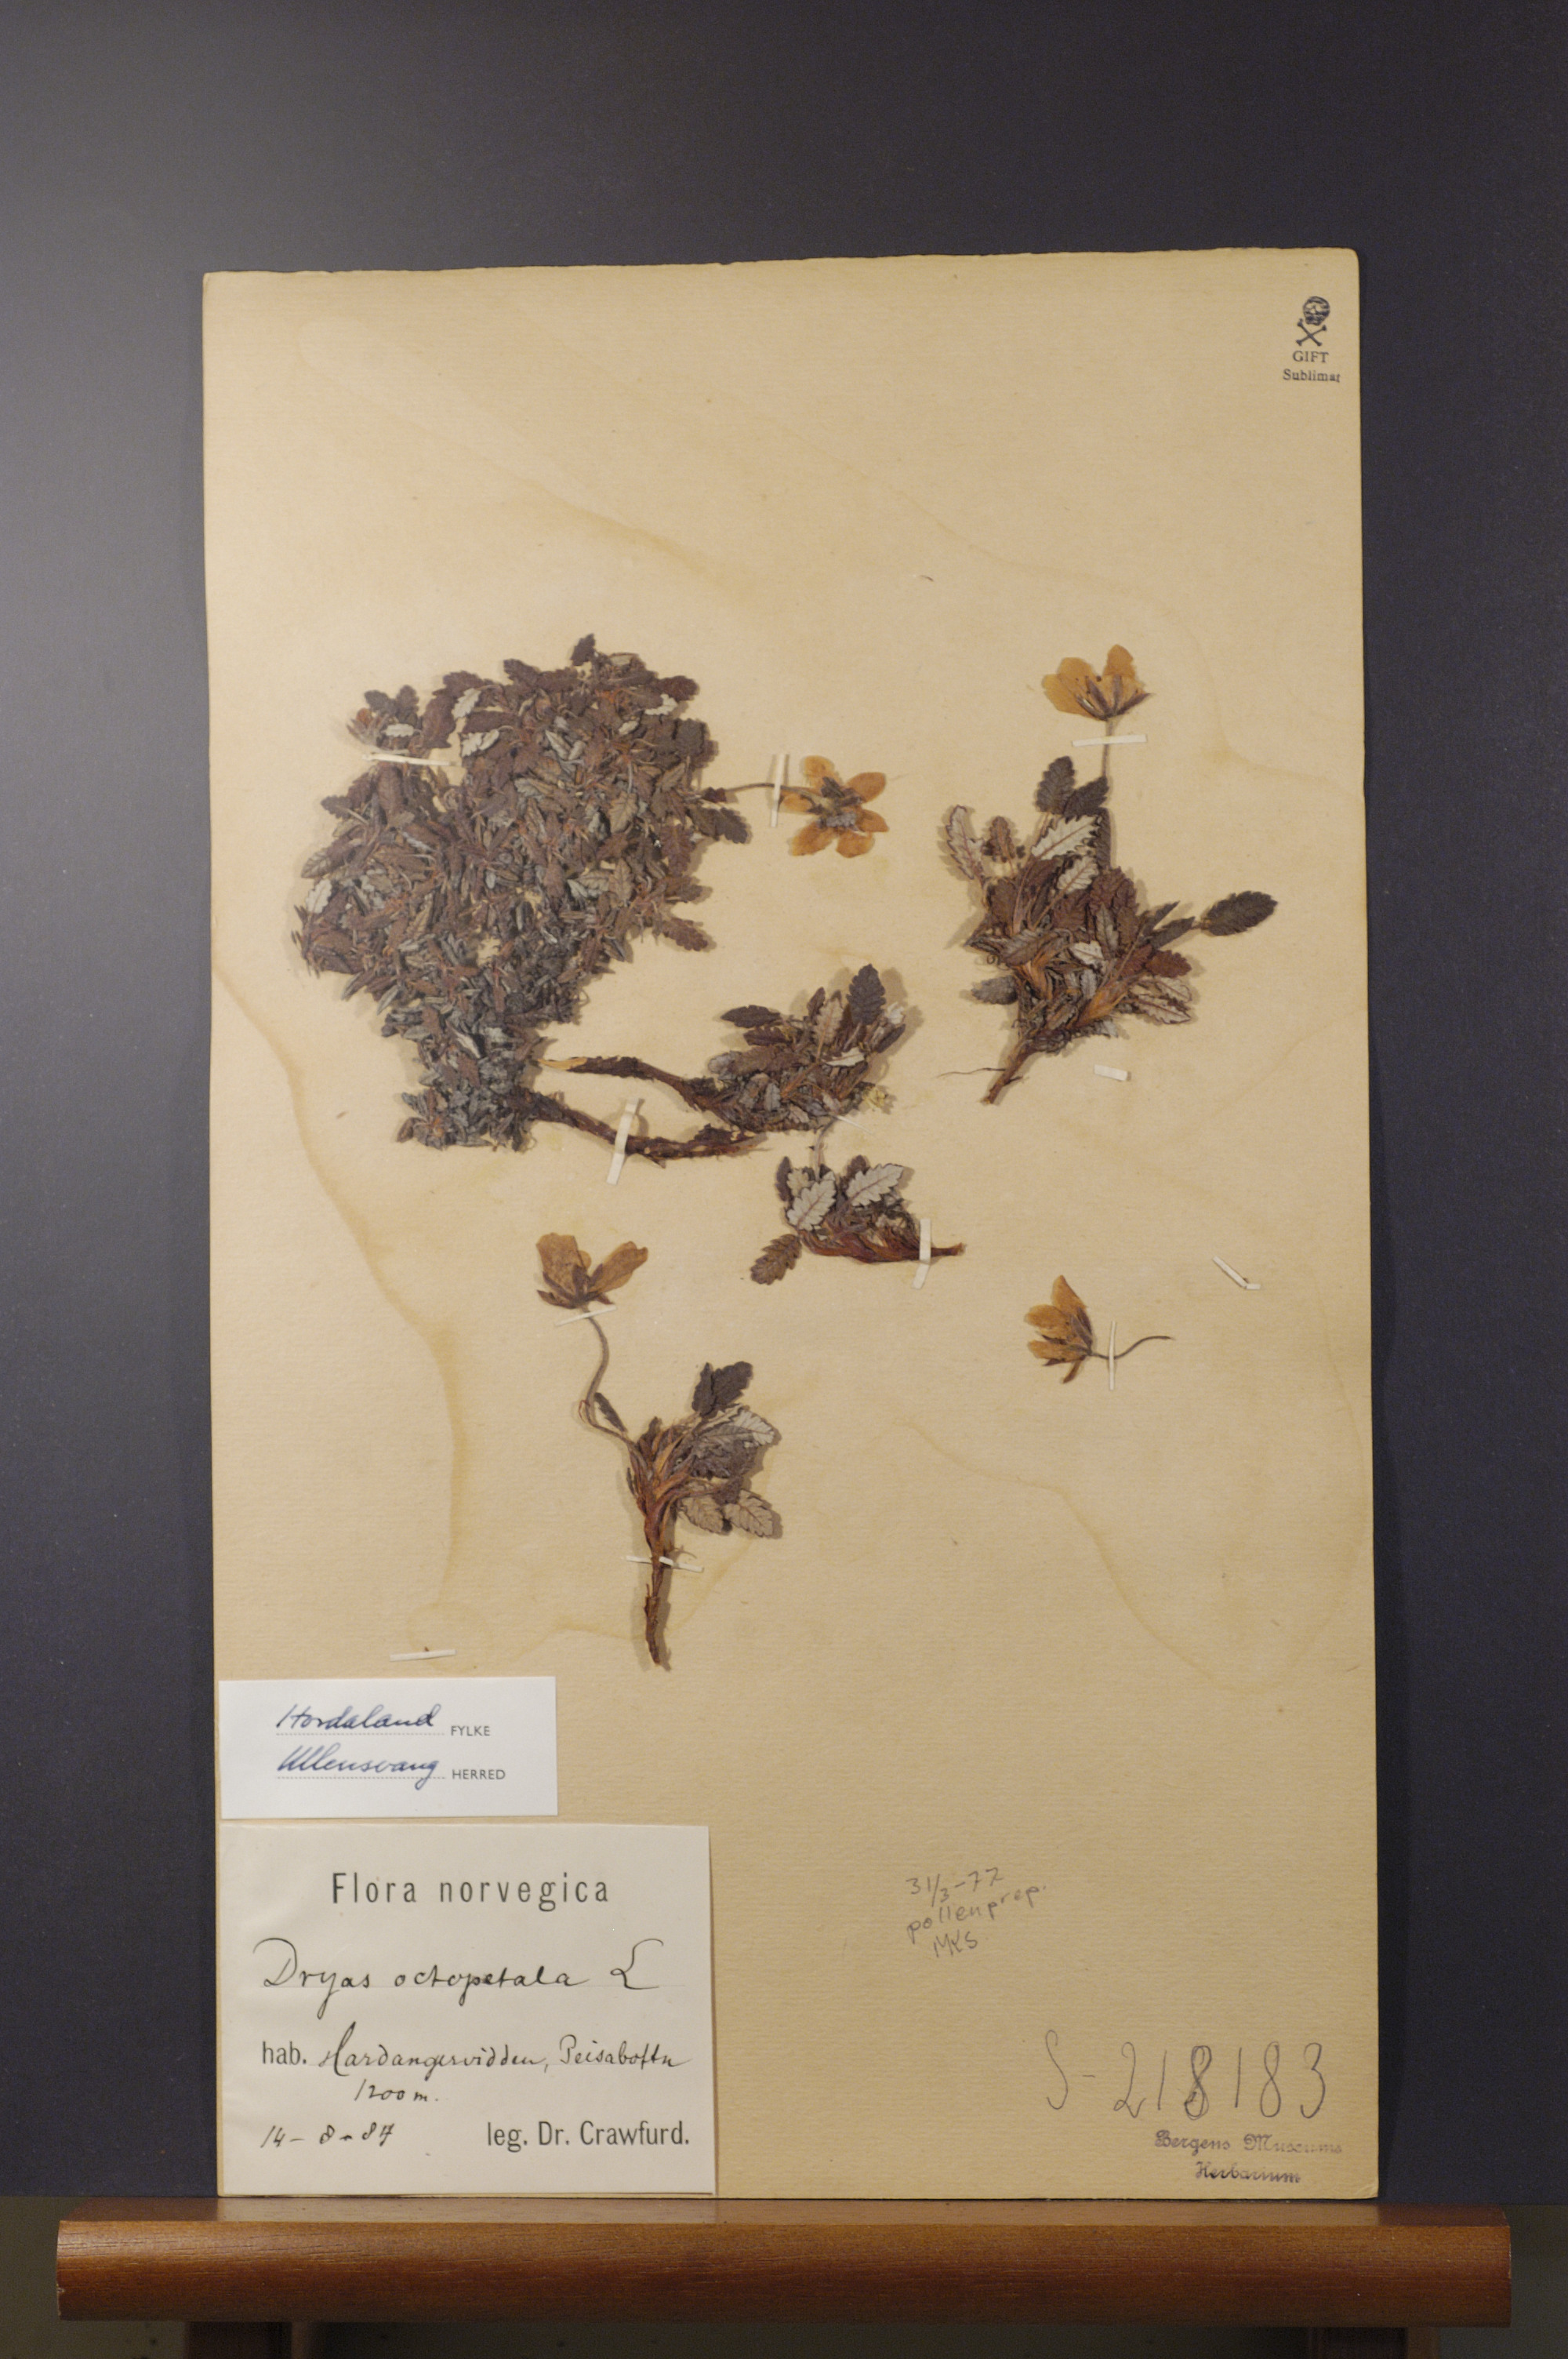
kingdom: Plantae
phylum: Tracheophyta
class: Magnoliopsida
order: Rosales
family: Rosaceae
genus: Dryas
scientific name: Dryas octopetala
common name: Eight-petal mountain-avens
